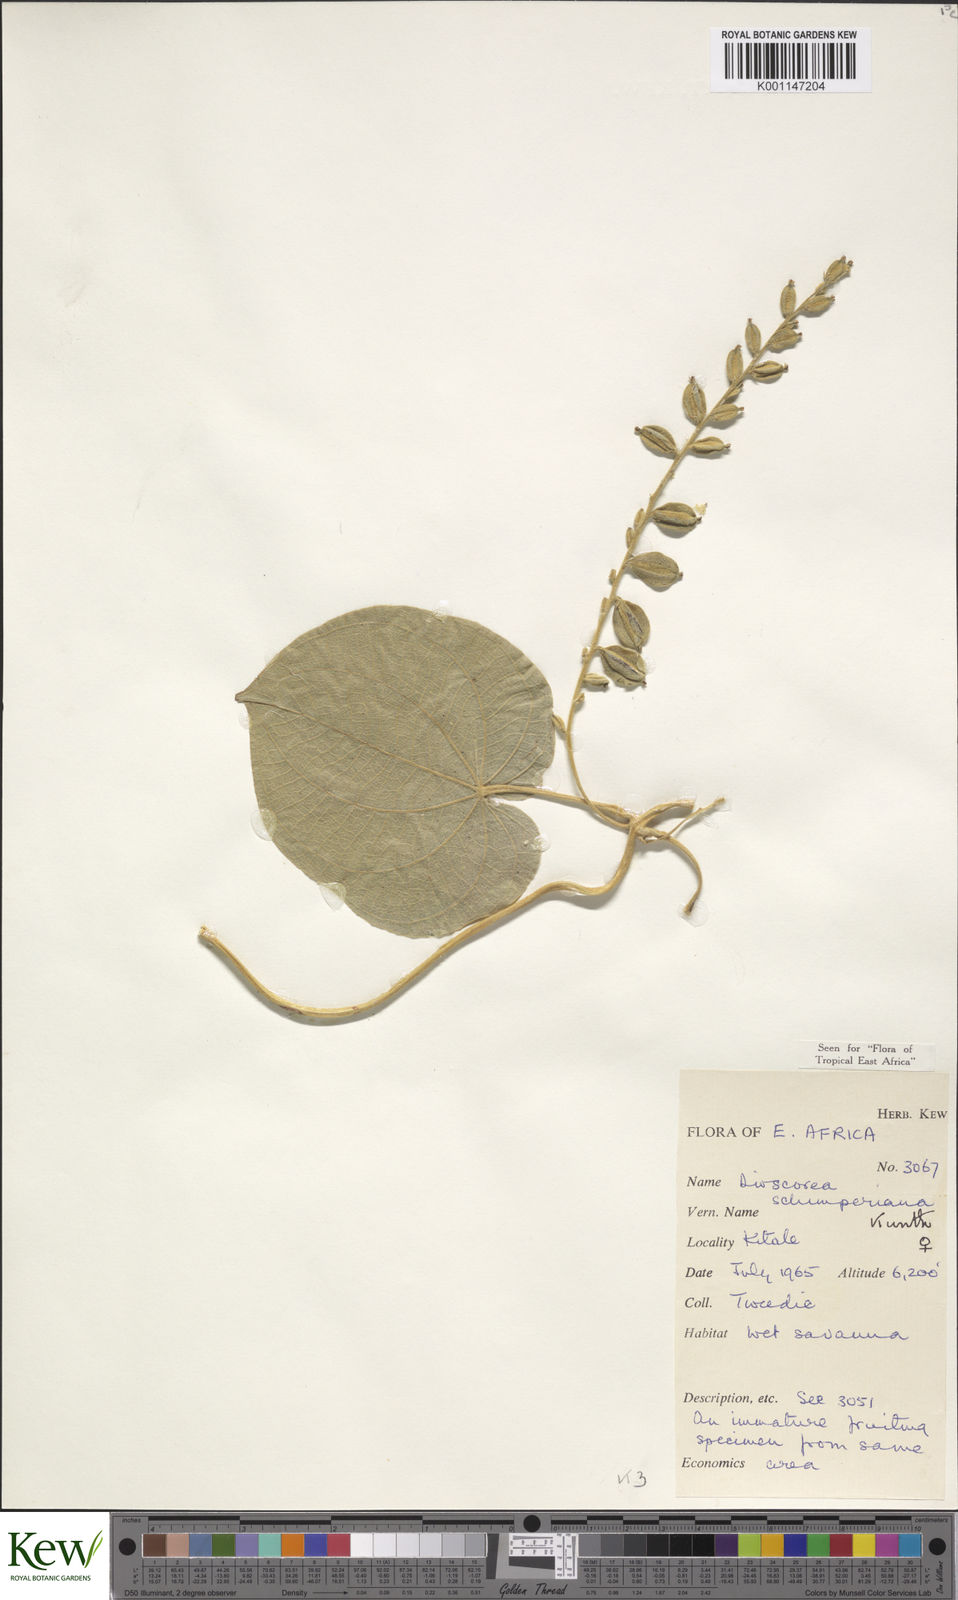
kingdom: Plantae
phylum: Tracheophyta
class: Liliopsida
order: Dioscoreales
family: Dioscoreaceae
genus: Dioscorea
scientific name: Dioscorea schimperiana
